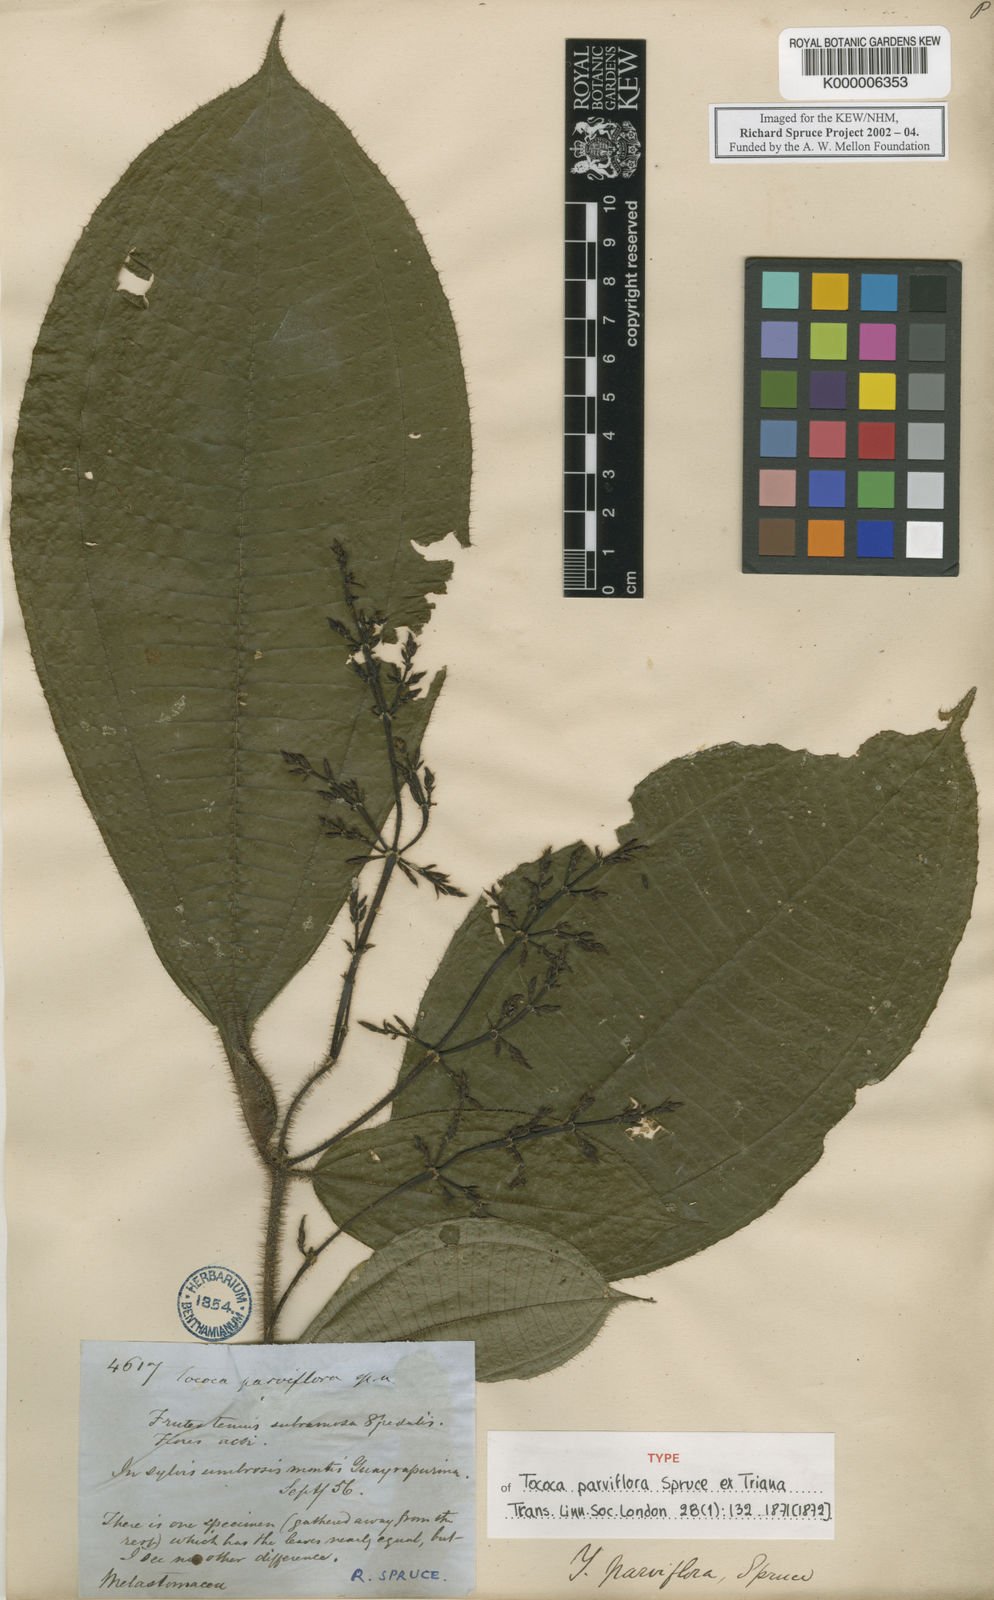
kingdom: Plantae
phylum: Tracheophyta
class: Magnoliopsida
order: Myrtales
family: Melastomataceae
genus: Miconia
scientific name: Miconia manserichensis
